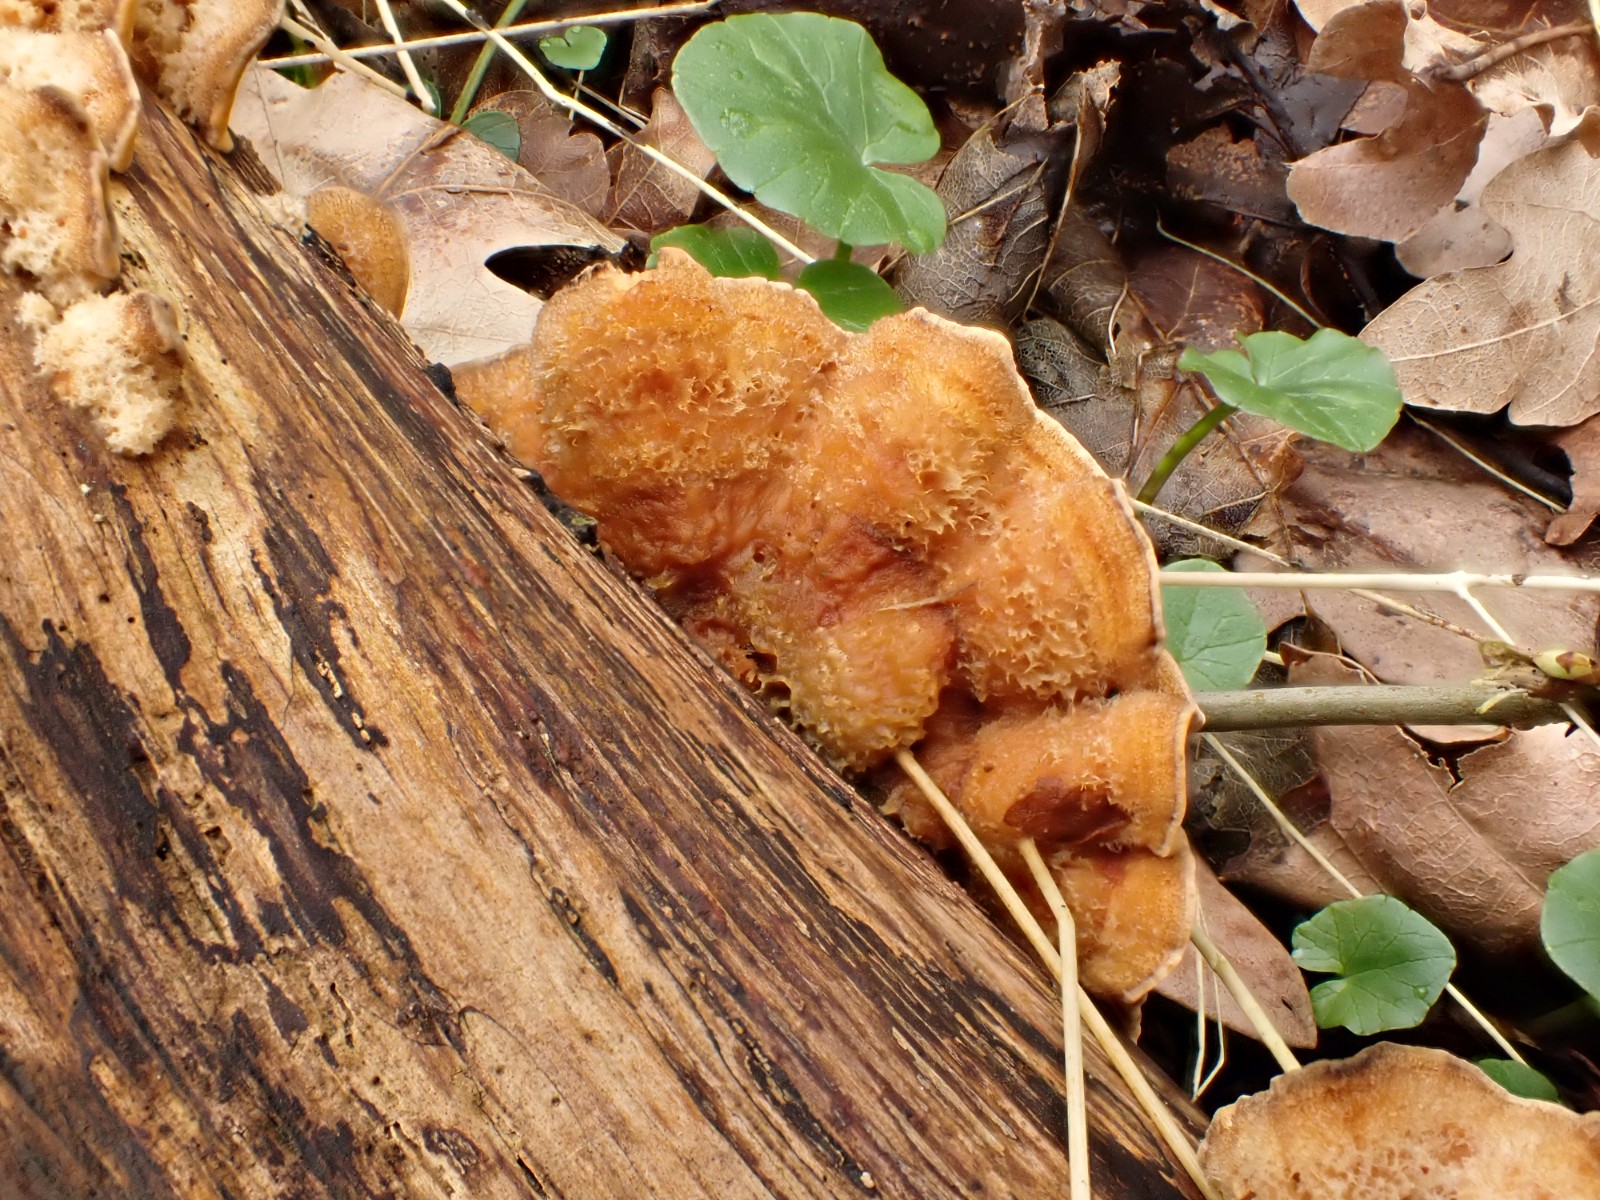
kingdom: Fungi
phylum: Basidiomycota
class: Agaricomycetes
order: Russulales
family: Stereaceae
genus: Stereum
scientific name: Stereum hirsutum
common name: håret lædersvamp
